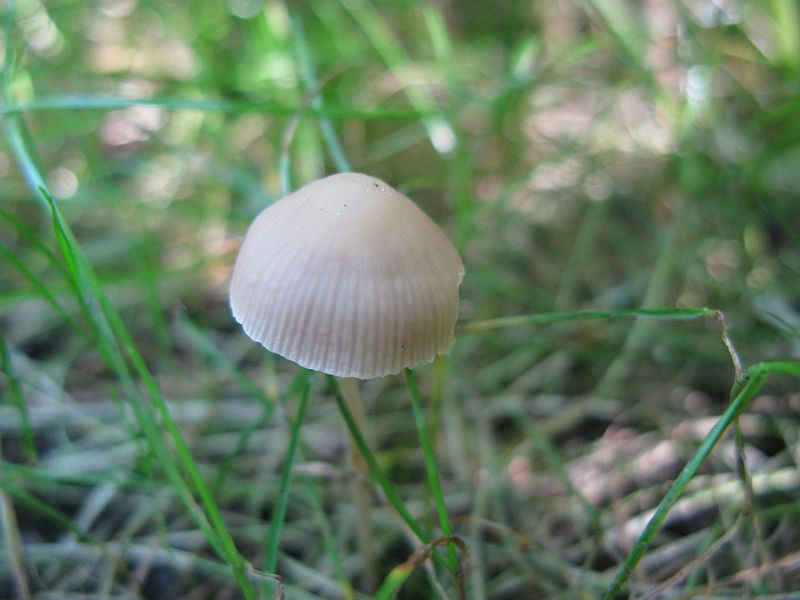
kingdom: Fungi
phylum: Basidiomycota
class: Agaricomycetes
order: Agaricales
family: Psathyrellaceae
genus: Psathyrella
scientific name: Psathyrella pseudogracilis
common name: slank mørkhat
